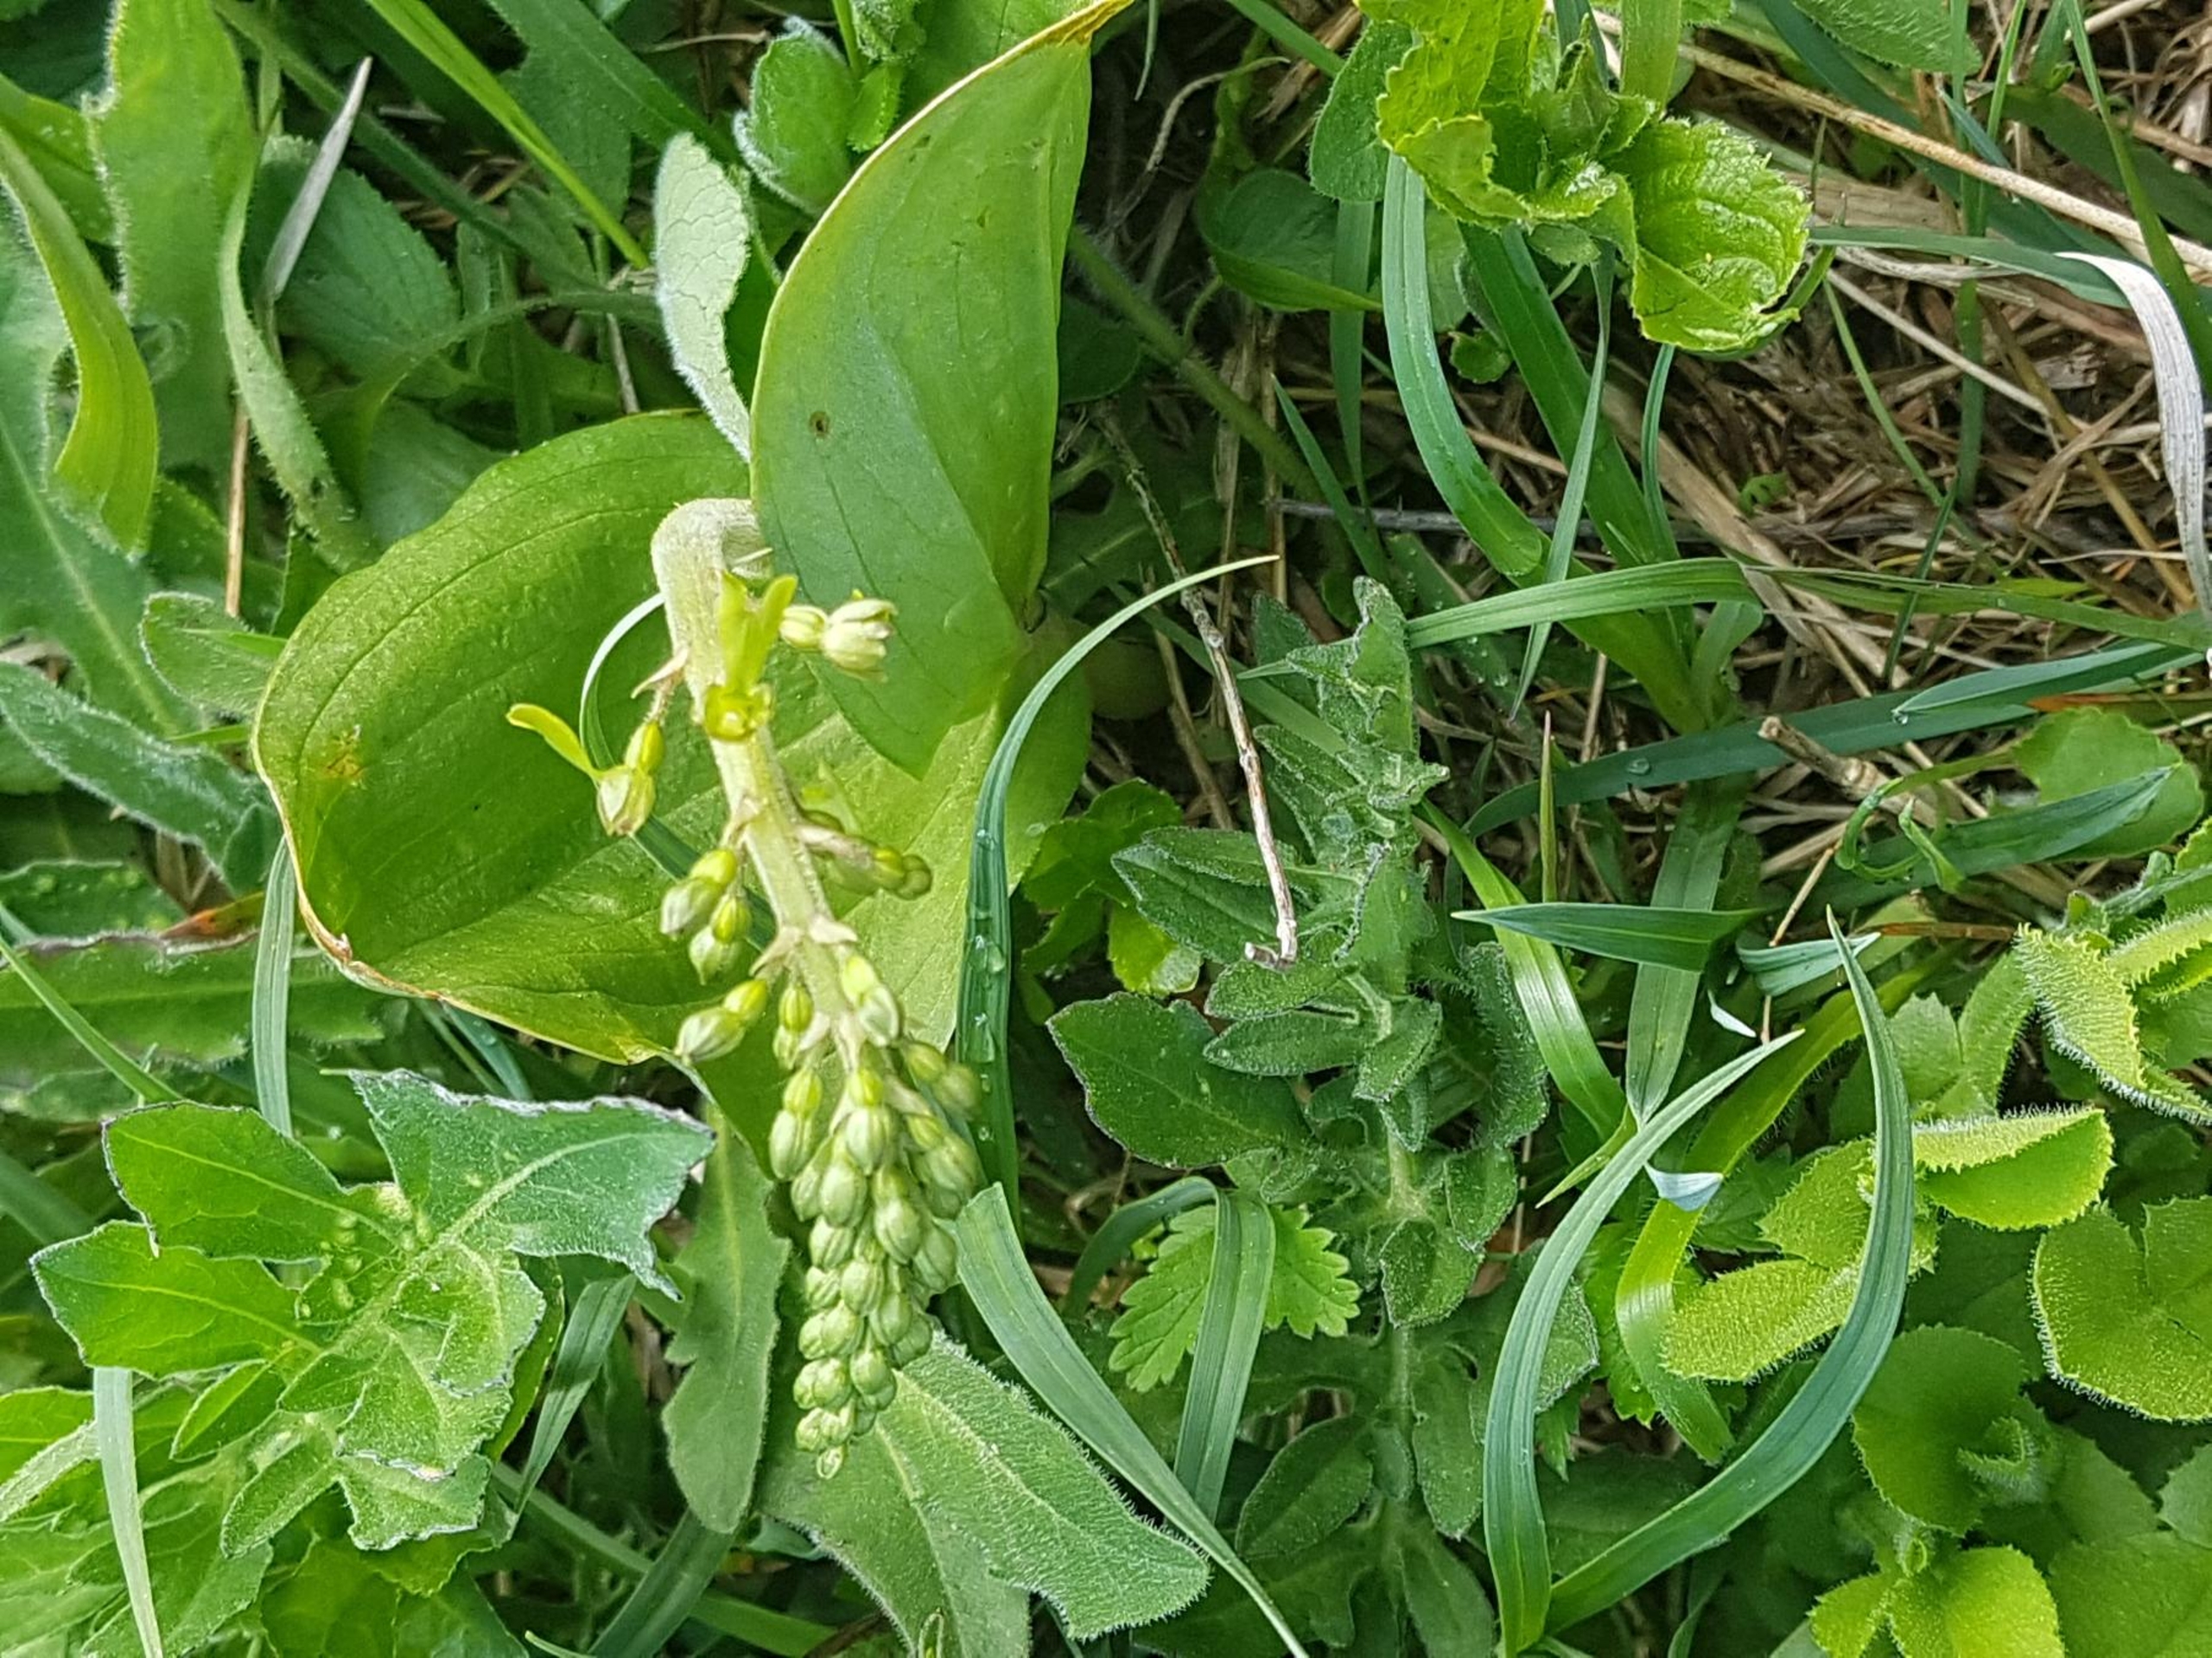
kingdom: Plantae
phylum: Tracheophyta
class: Liliopsida
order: Asparagales
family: Orchidaceae
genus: Neottia
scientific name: Neottia ovata
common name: Ægbladet fliglæbe
